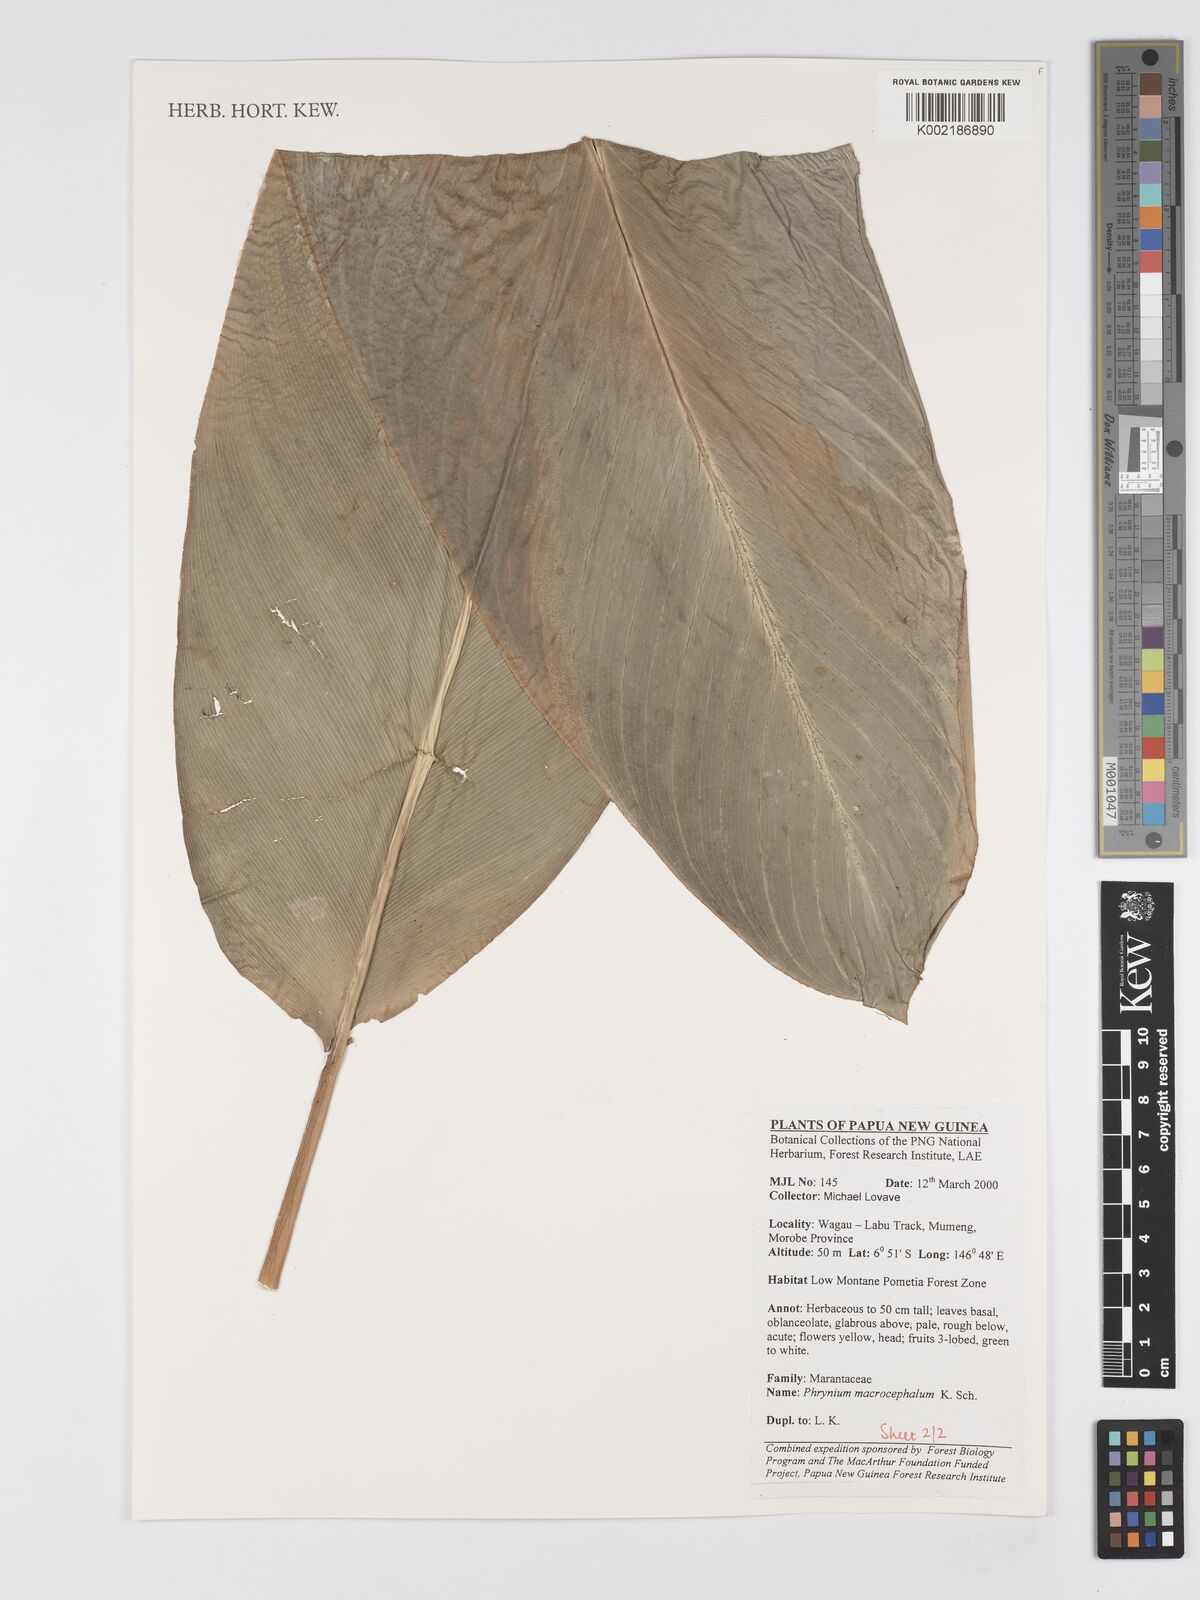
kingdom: Plantae
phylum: Tracheophyta
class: Liliopsida
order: Zingiberales
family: Marantaceae
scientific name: Marantaceae
